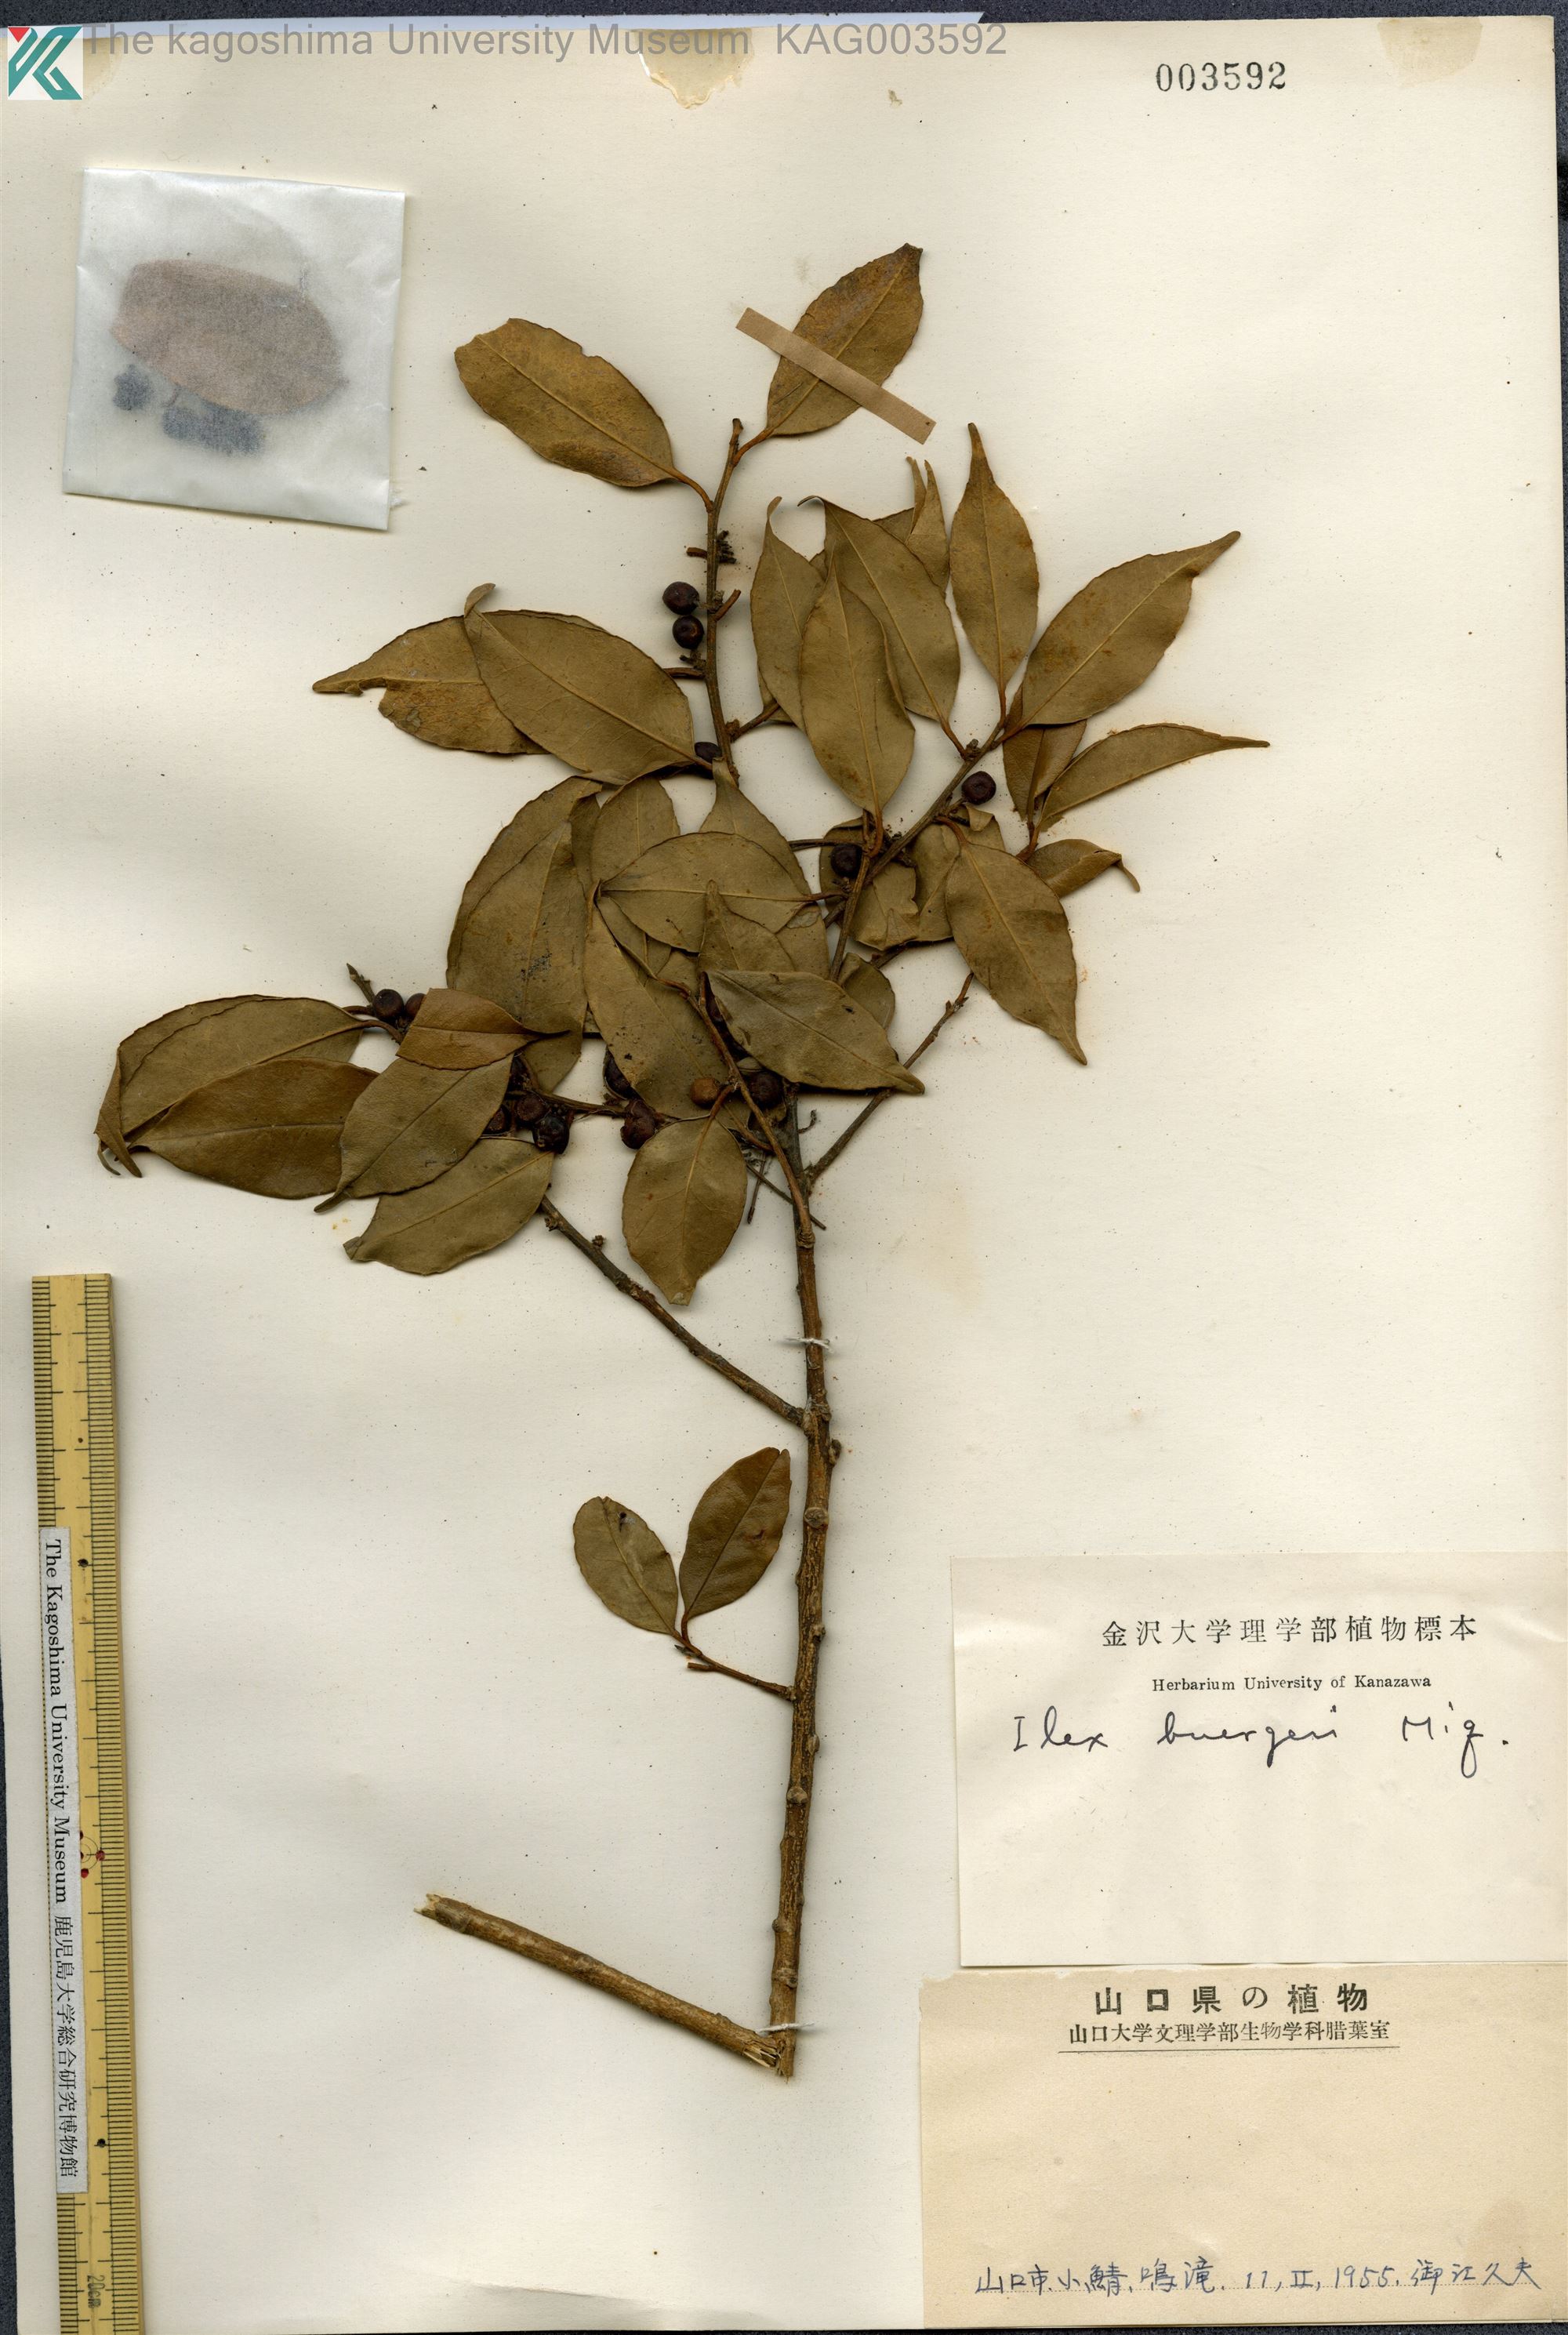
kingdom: Plantae
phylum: Tracheophyta
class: Magnoliopsida
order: Aquifoliales
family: Aquifoliaceae
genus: Ilex
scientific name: Ilex buergeri
